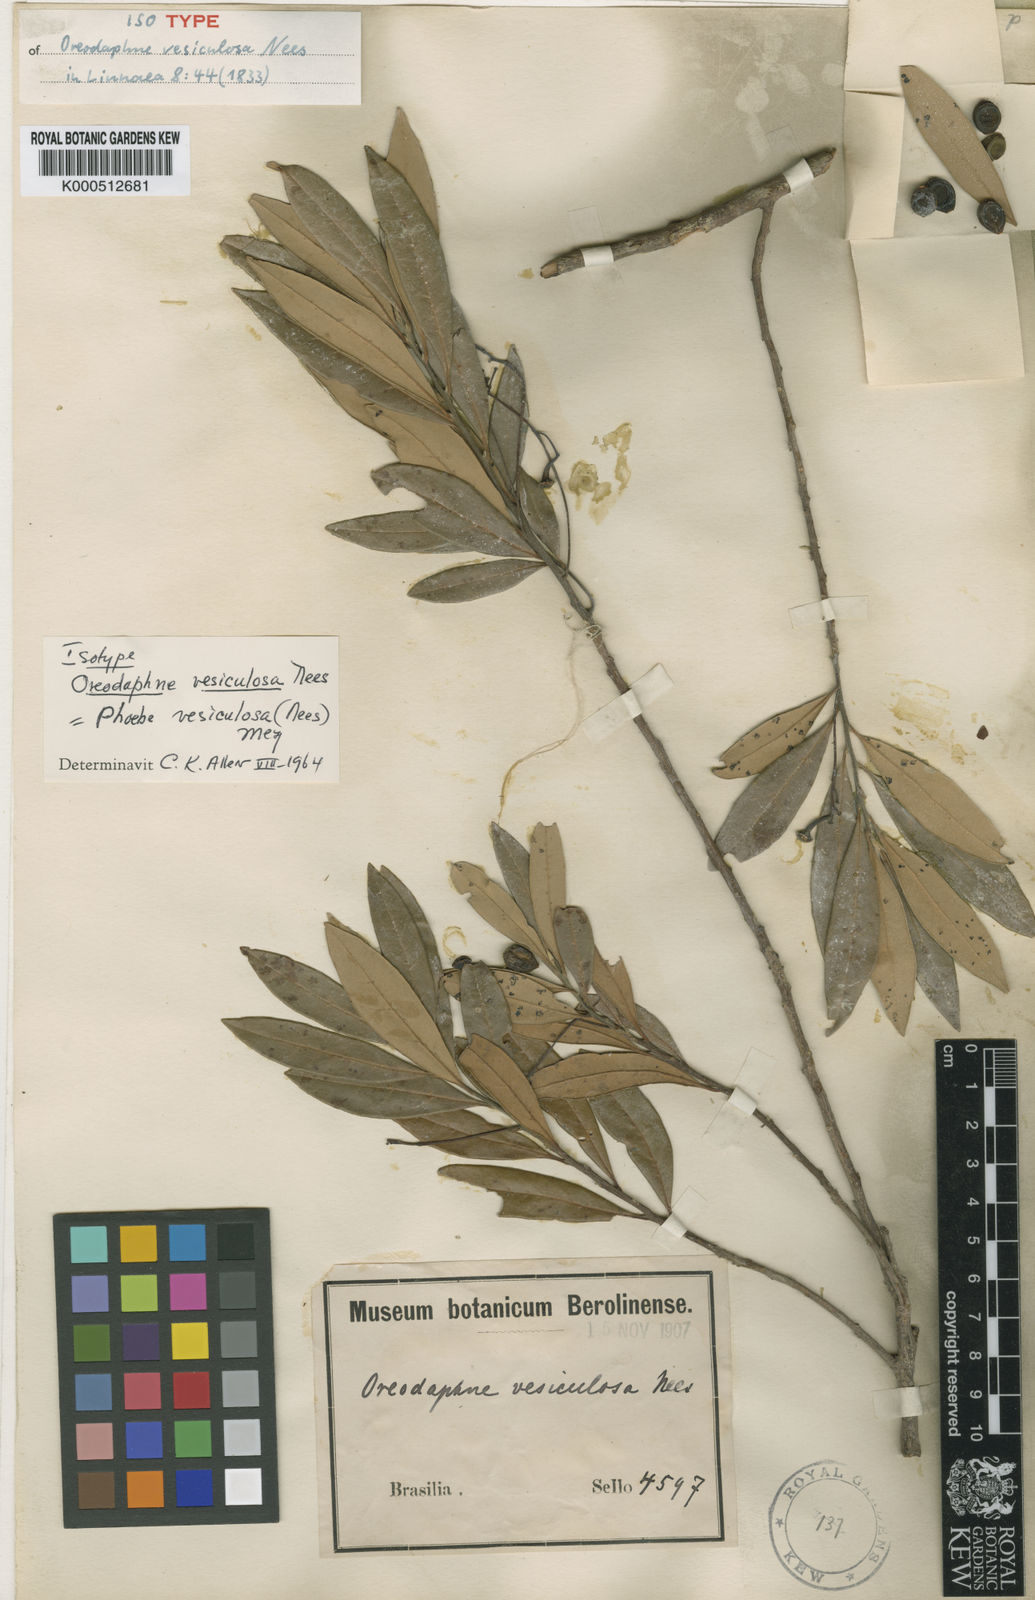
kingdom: Plantae
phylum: Tracheophyta
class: Magnoliopsida
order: Laurales
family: Lauraceae
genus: Aiouea
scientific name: Aiouea amoena
